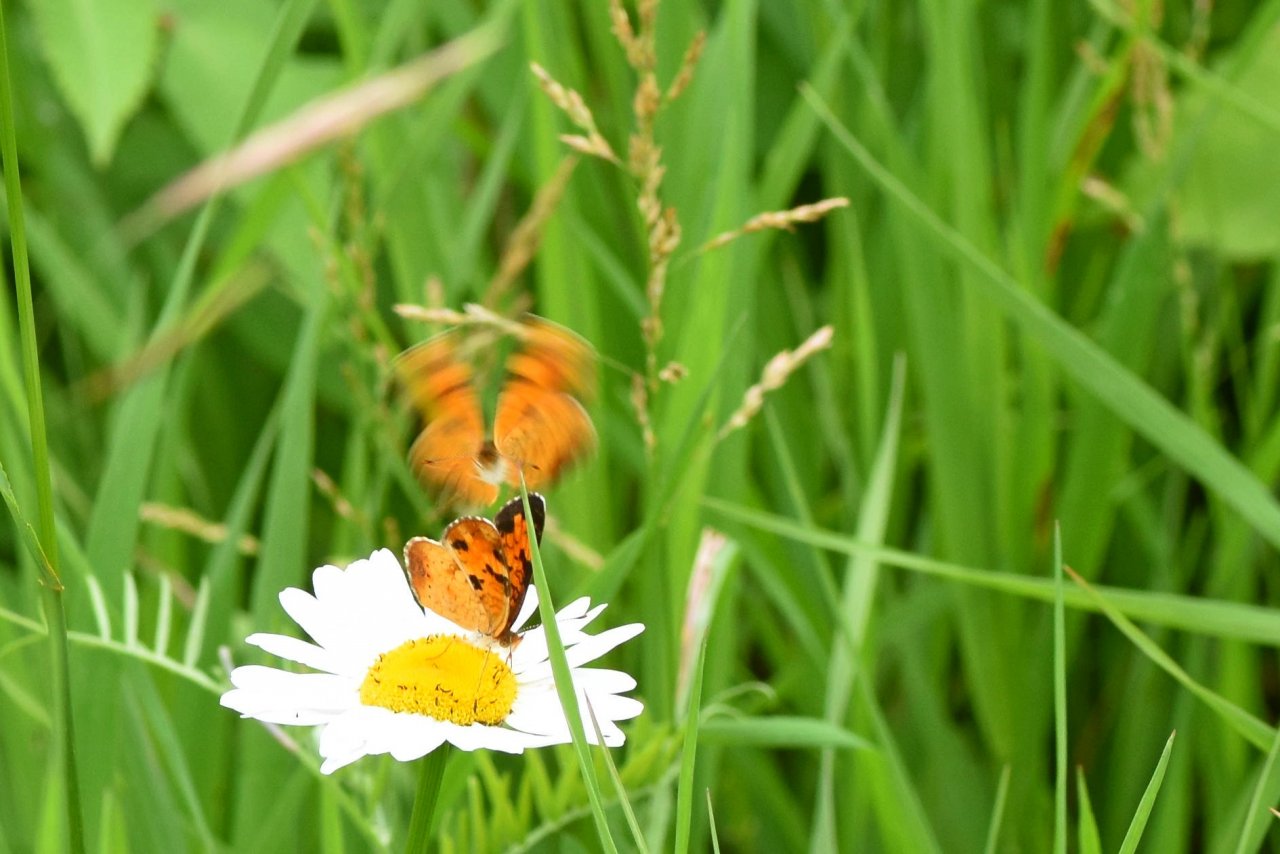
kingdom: Animalia
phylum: Arthropoda
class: Insecta
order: Lepidoptera
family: Nymphalidae
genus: Phyciodes
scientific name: Phyciodes tharos
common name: Northern Crescent
